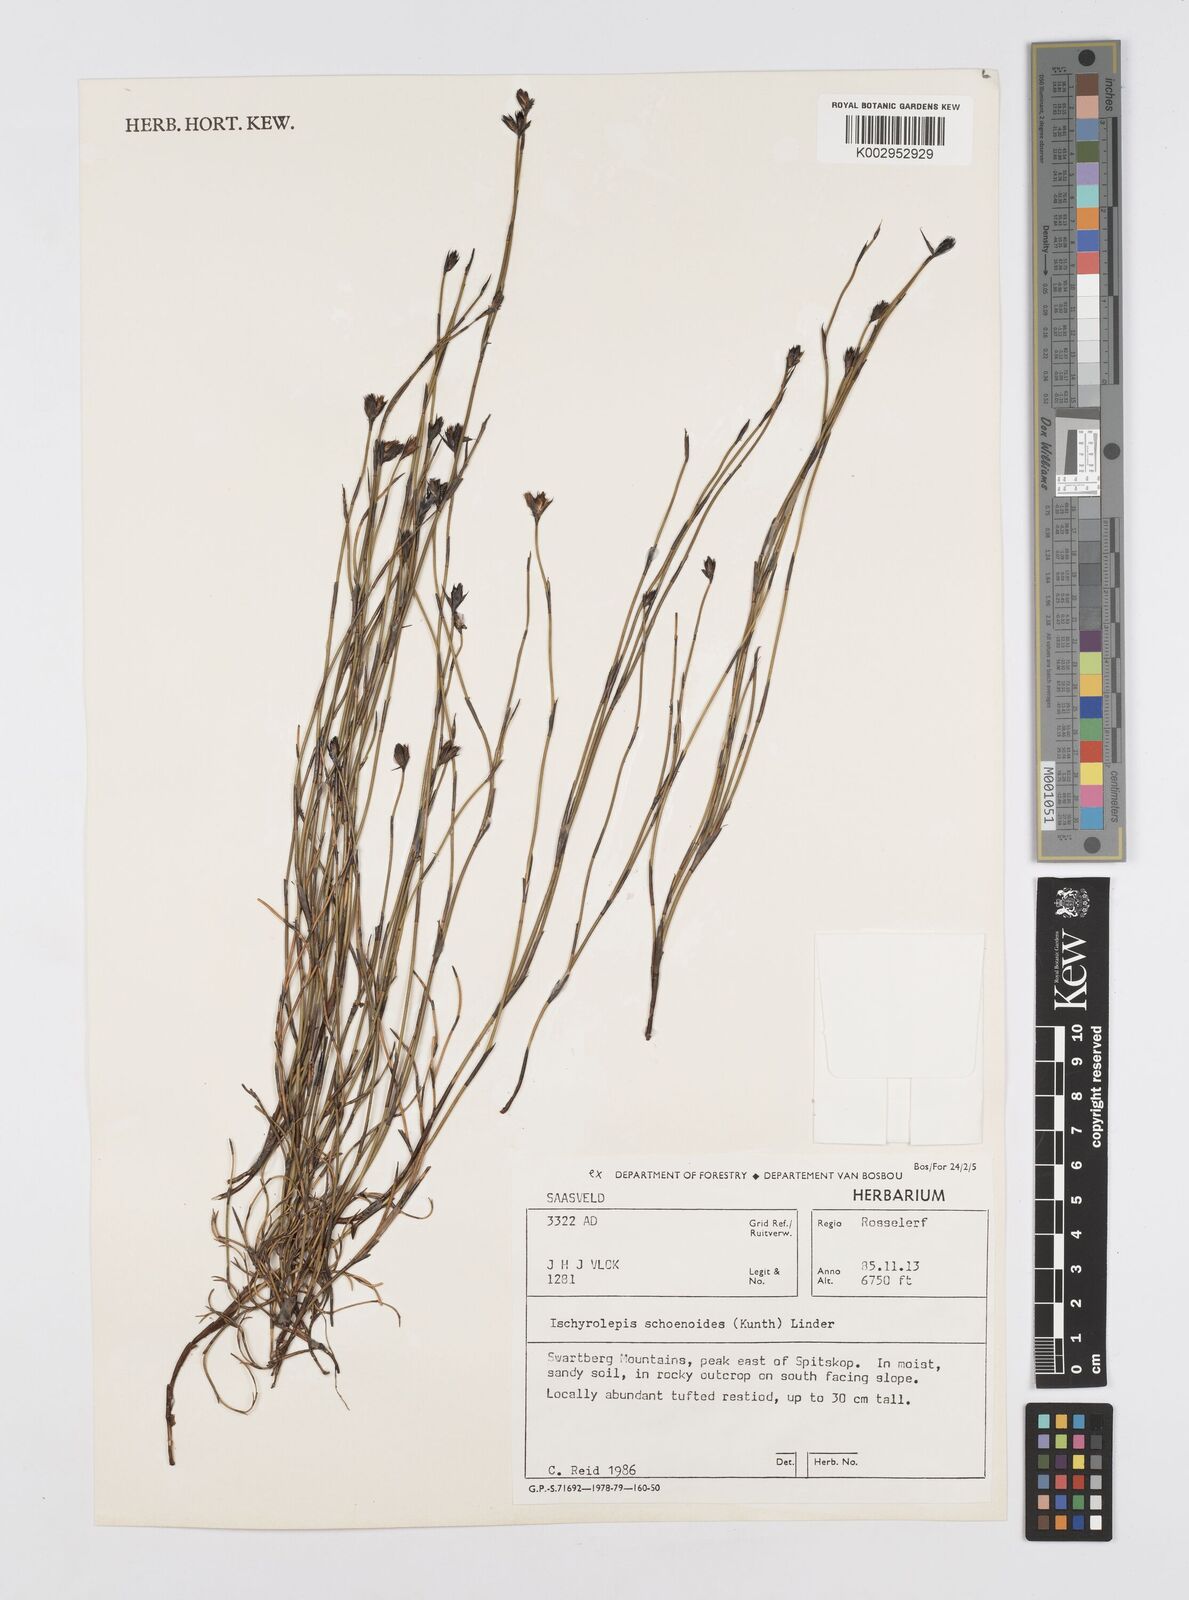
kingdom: Plantae
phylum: Tracheophyta
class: Liliopsida
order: Poales
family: Restionaceae
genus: Restio
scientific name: Restio schoenoides
